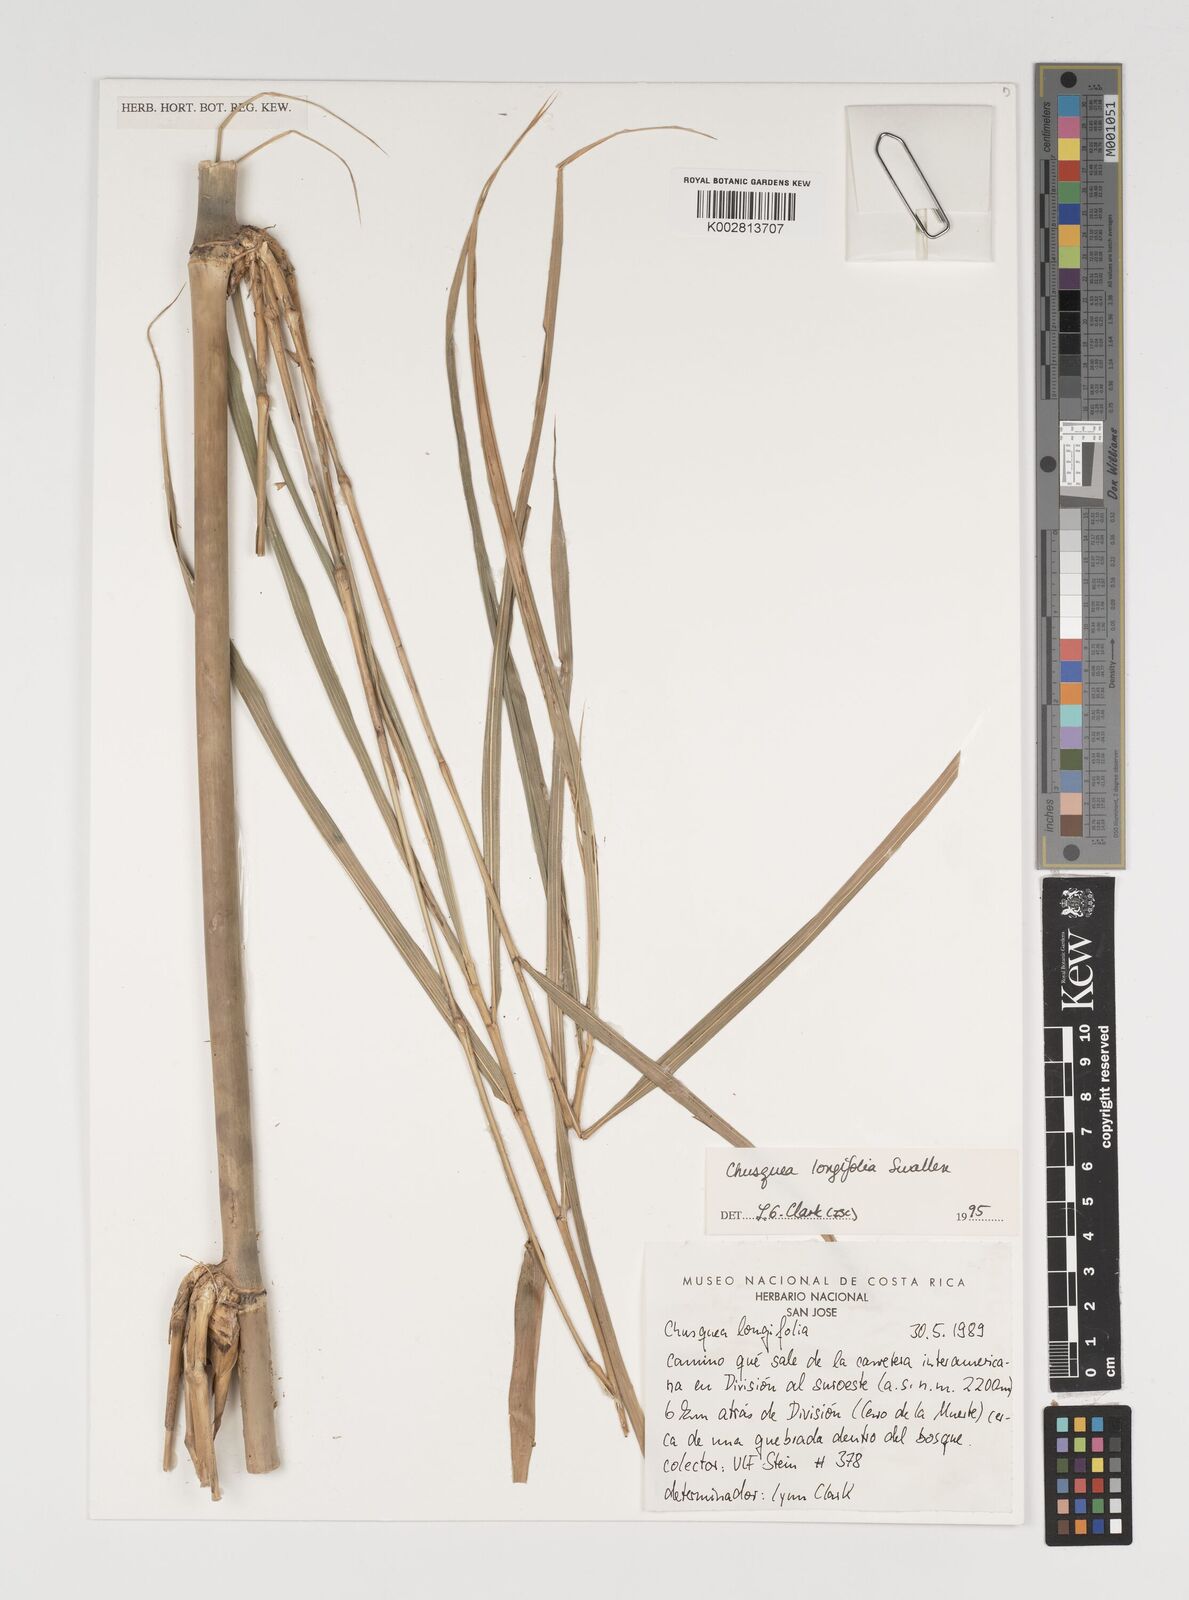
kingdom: Plantae
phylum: Tracheophyta
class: Liliopsida
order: Poales
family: Poaceae
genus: Chusquea
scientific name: Chusquea longifolia
